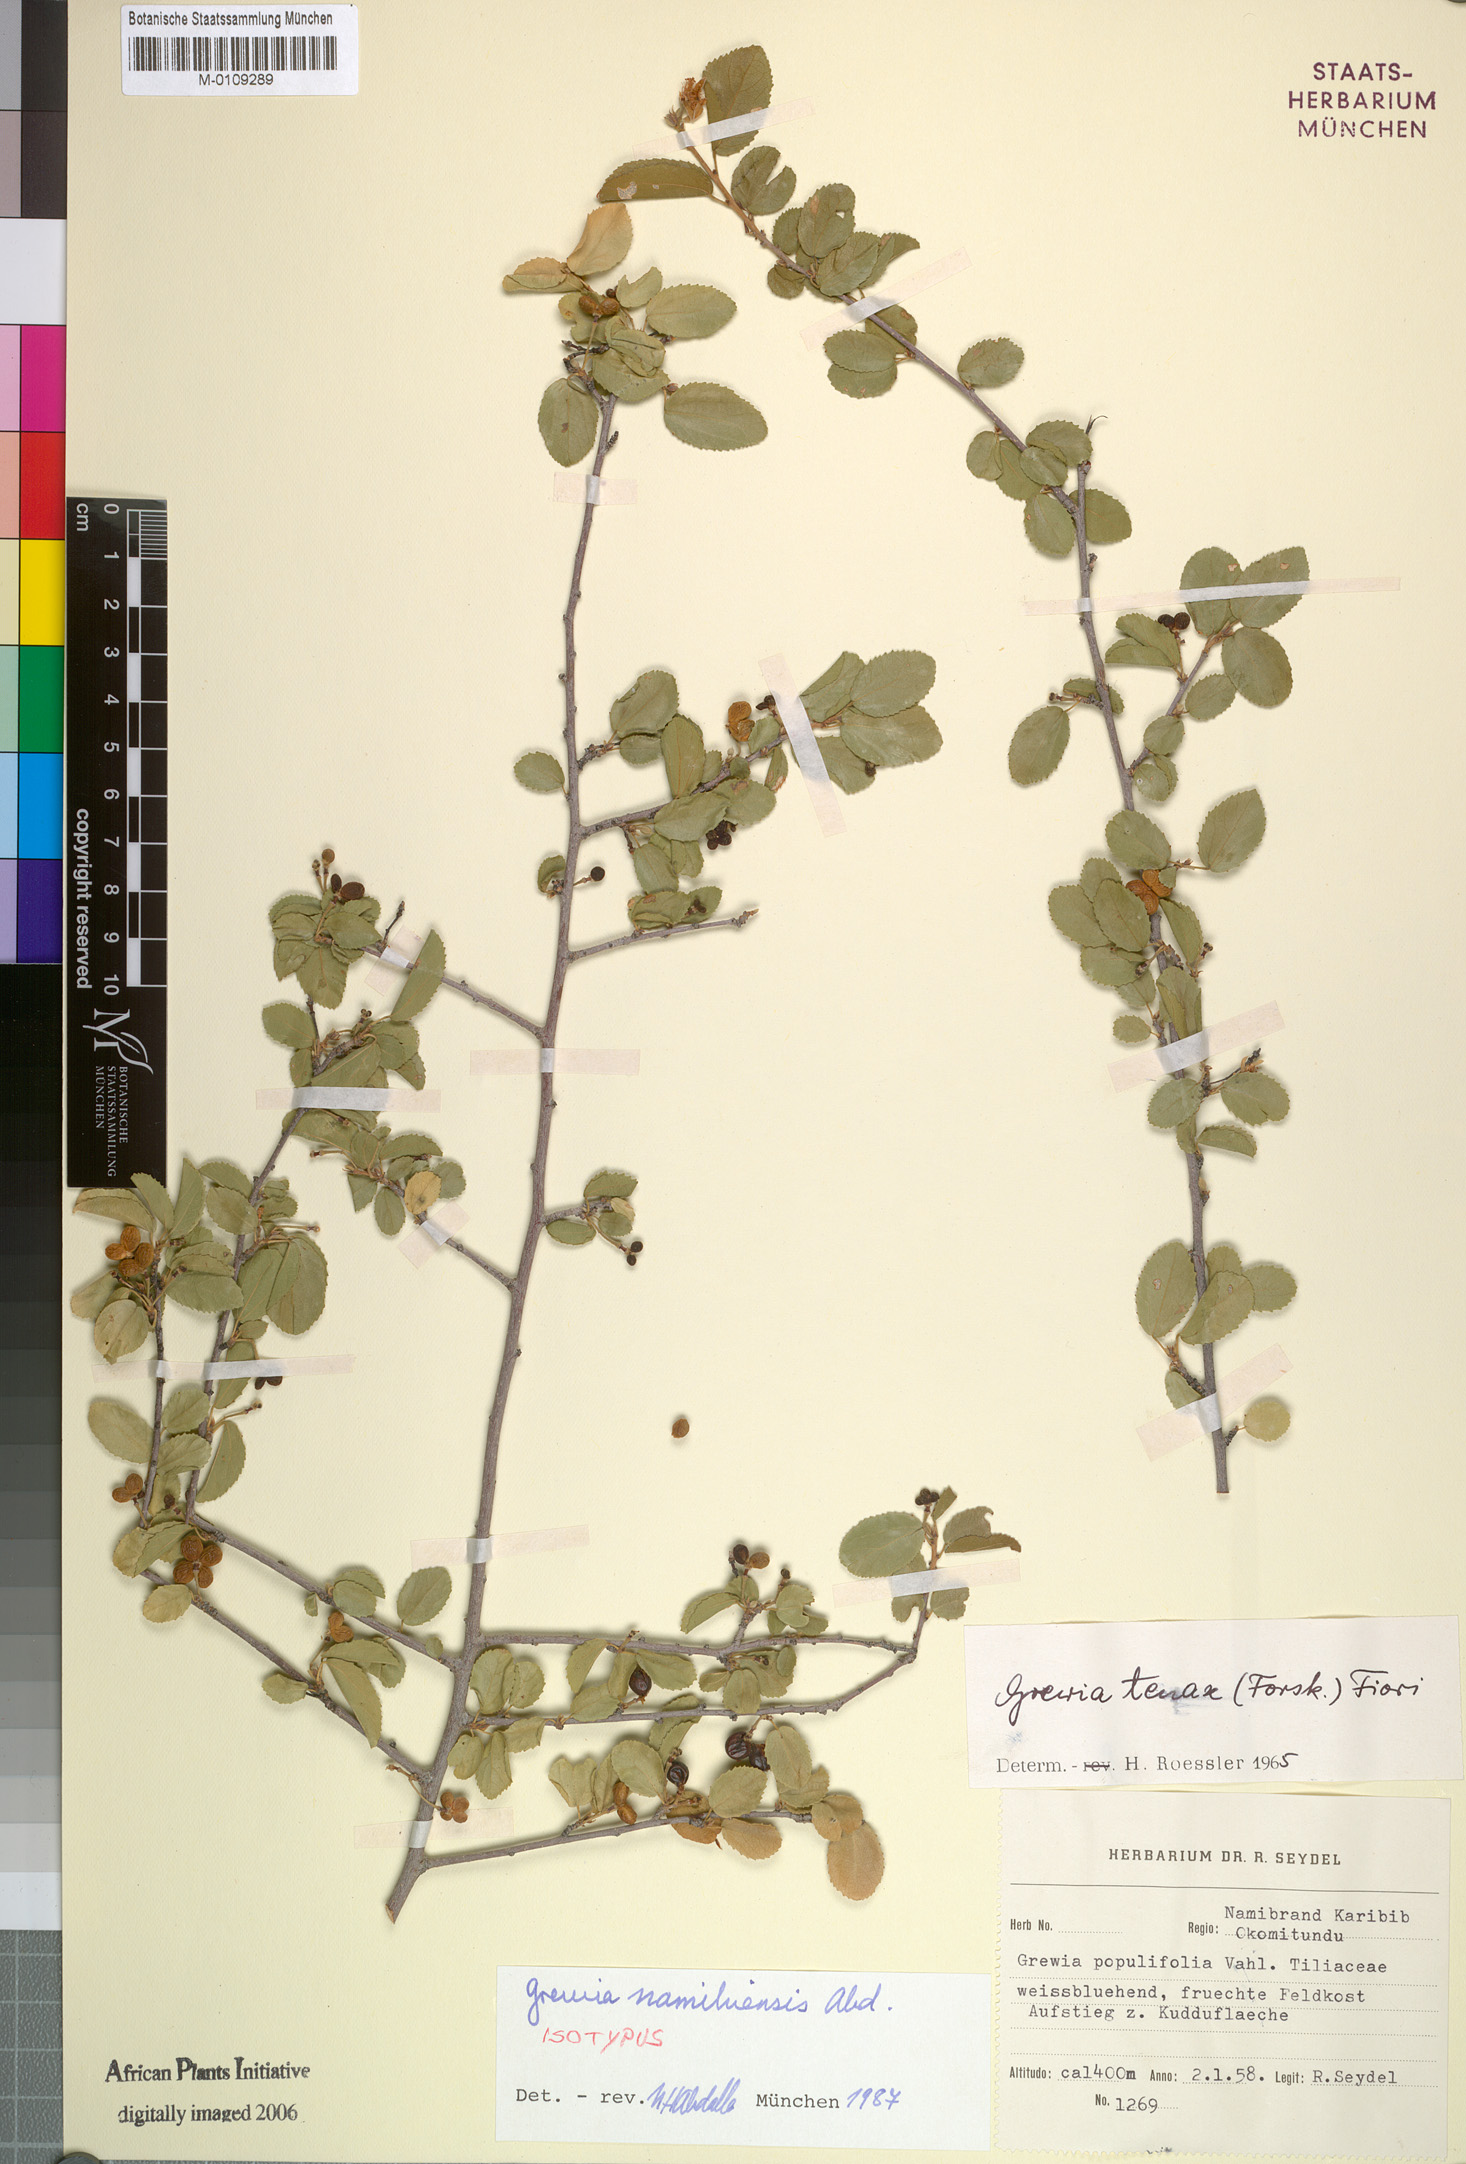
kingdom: Plantae
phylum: Tracheophyta
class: Magnoliopsida
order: Malvales
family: Malvaceae
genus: Grewia
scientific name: Grewia tenax
